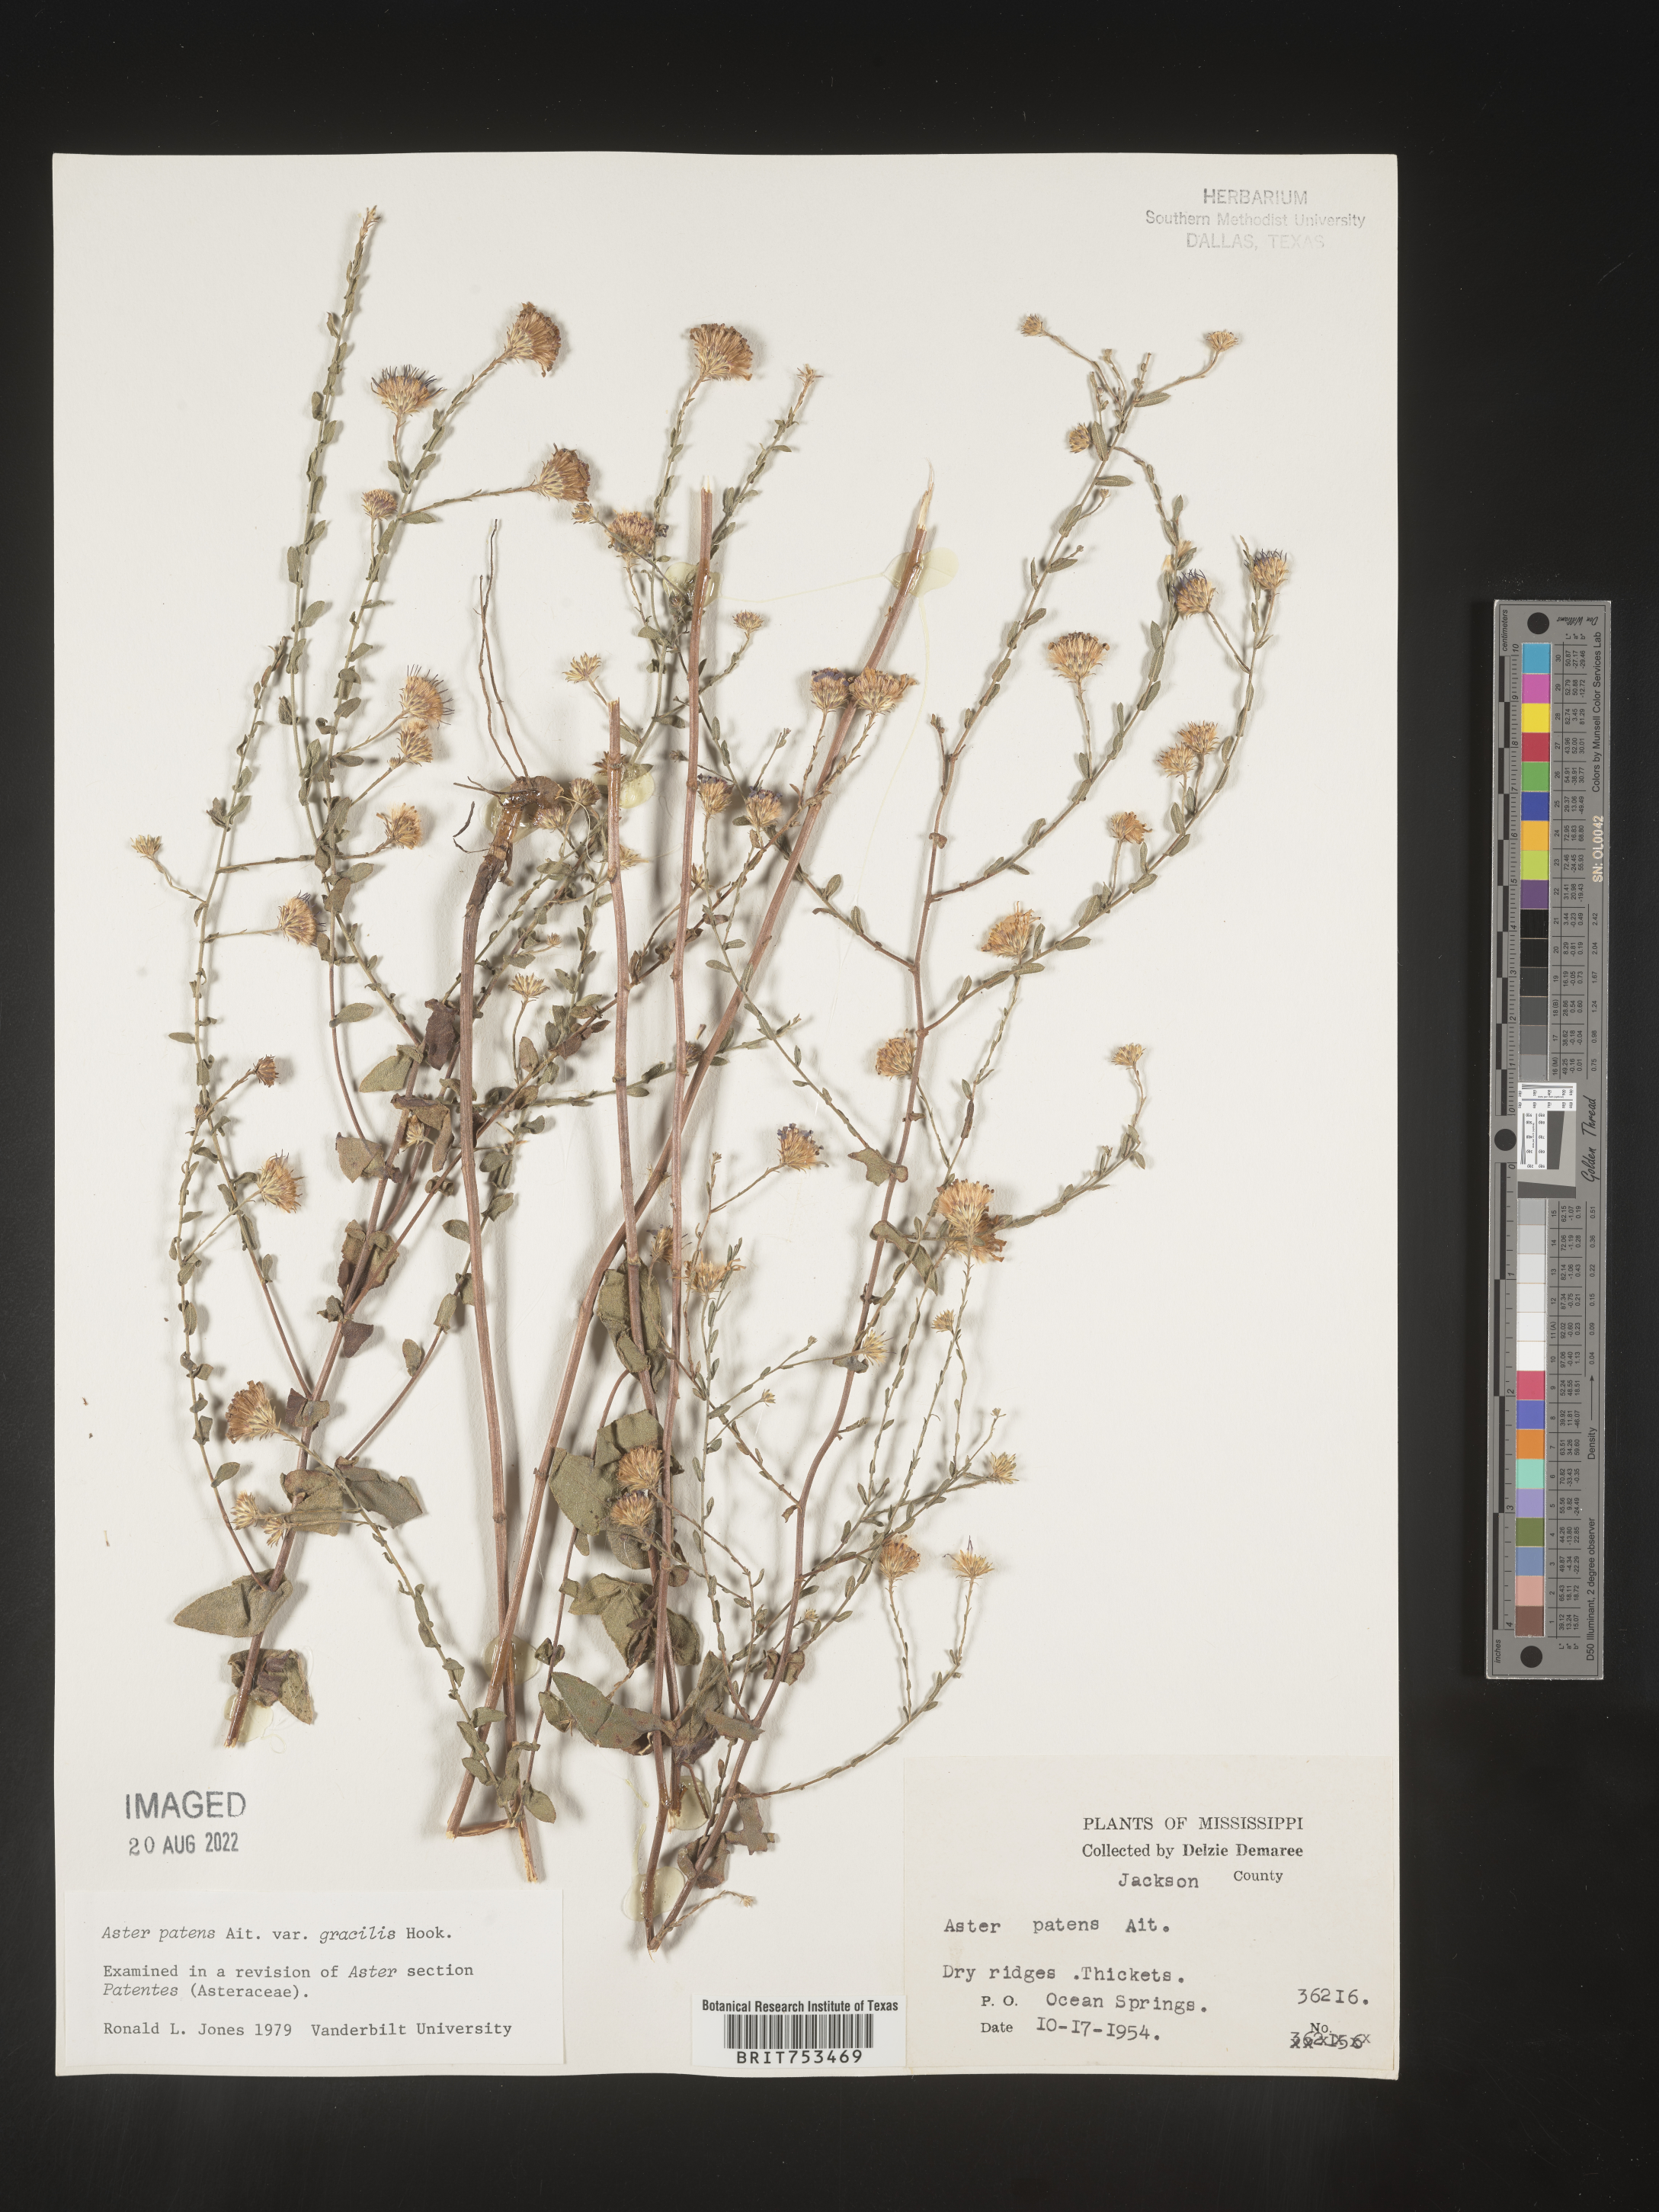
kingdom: Plantae
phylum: Tracheophyta
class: Magnoliopsida
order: Asterales
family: Asteraceae
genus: Symphyotrichum
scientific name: Symphyotrichum patens
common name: Late purple aster
